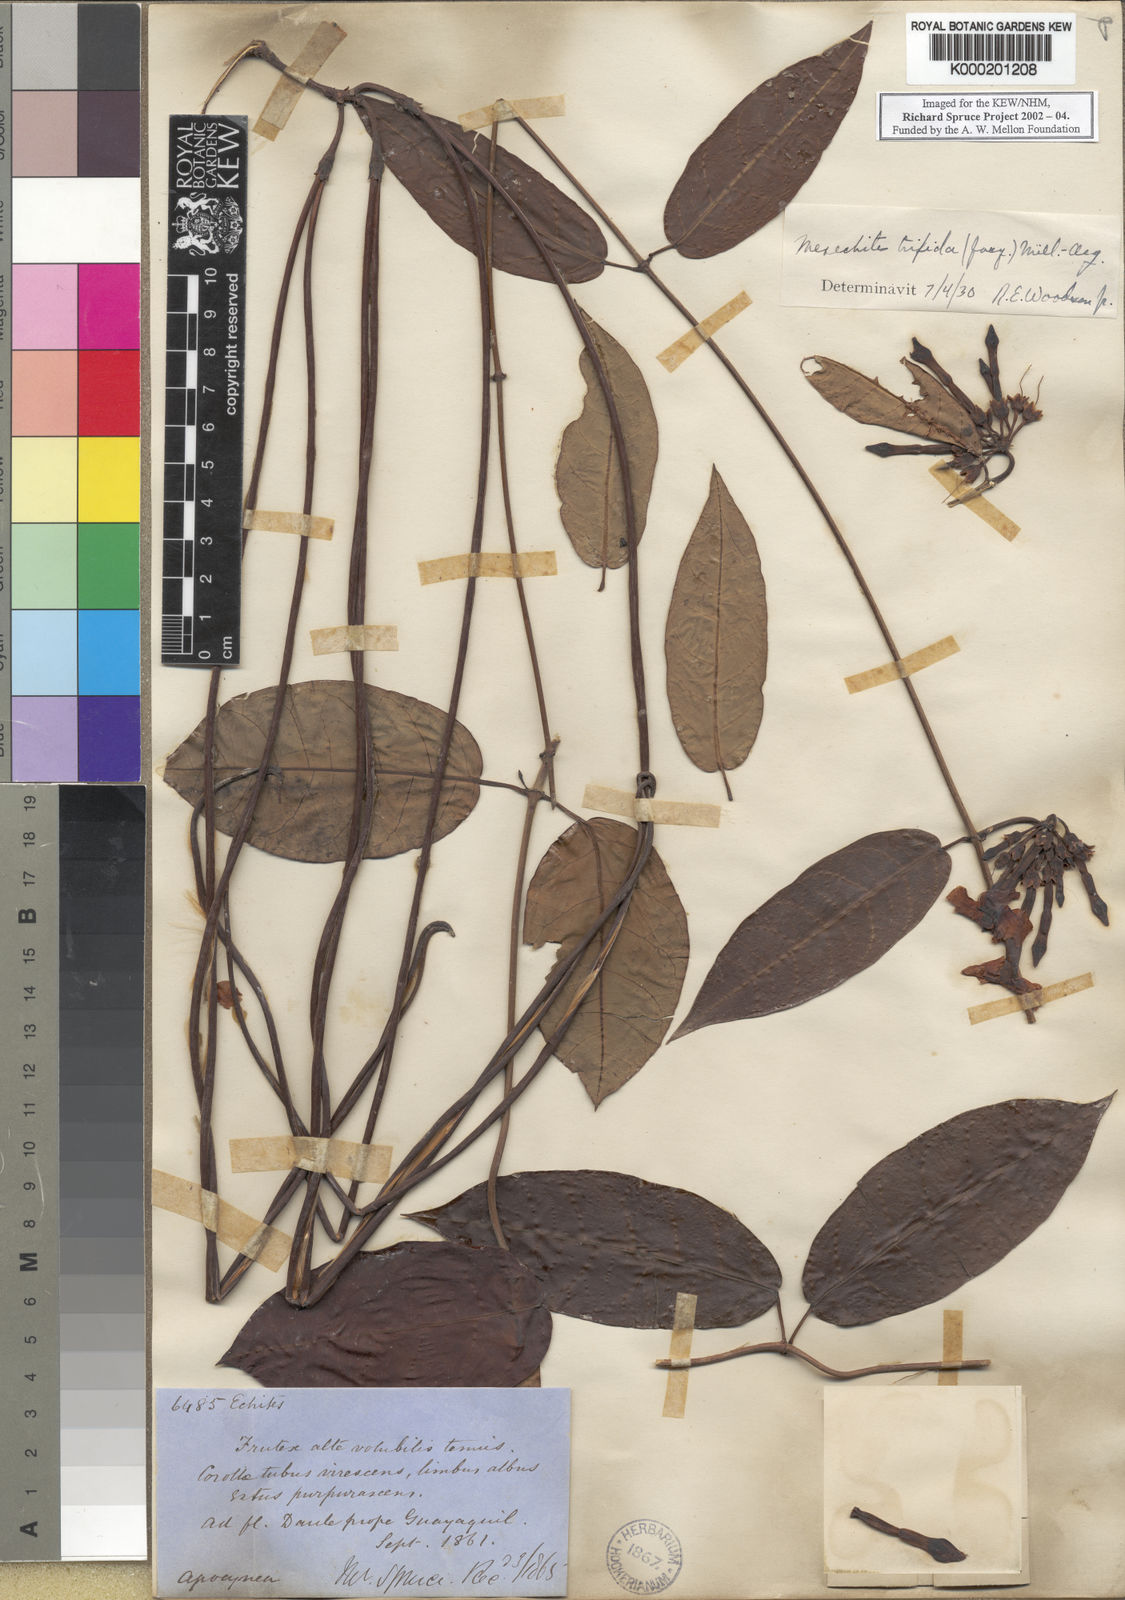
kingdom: Plantae
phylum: Tracheophyta
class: Magnoliopsida
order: Gentianales
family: Apocynaceae
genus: Mesechites
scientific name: Mesechites
